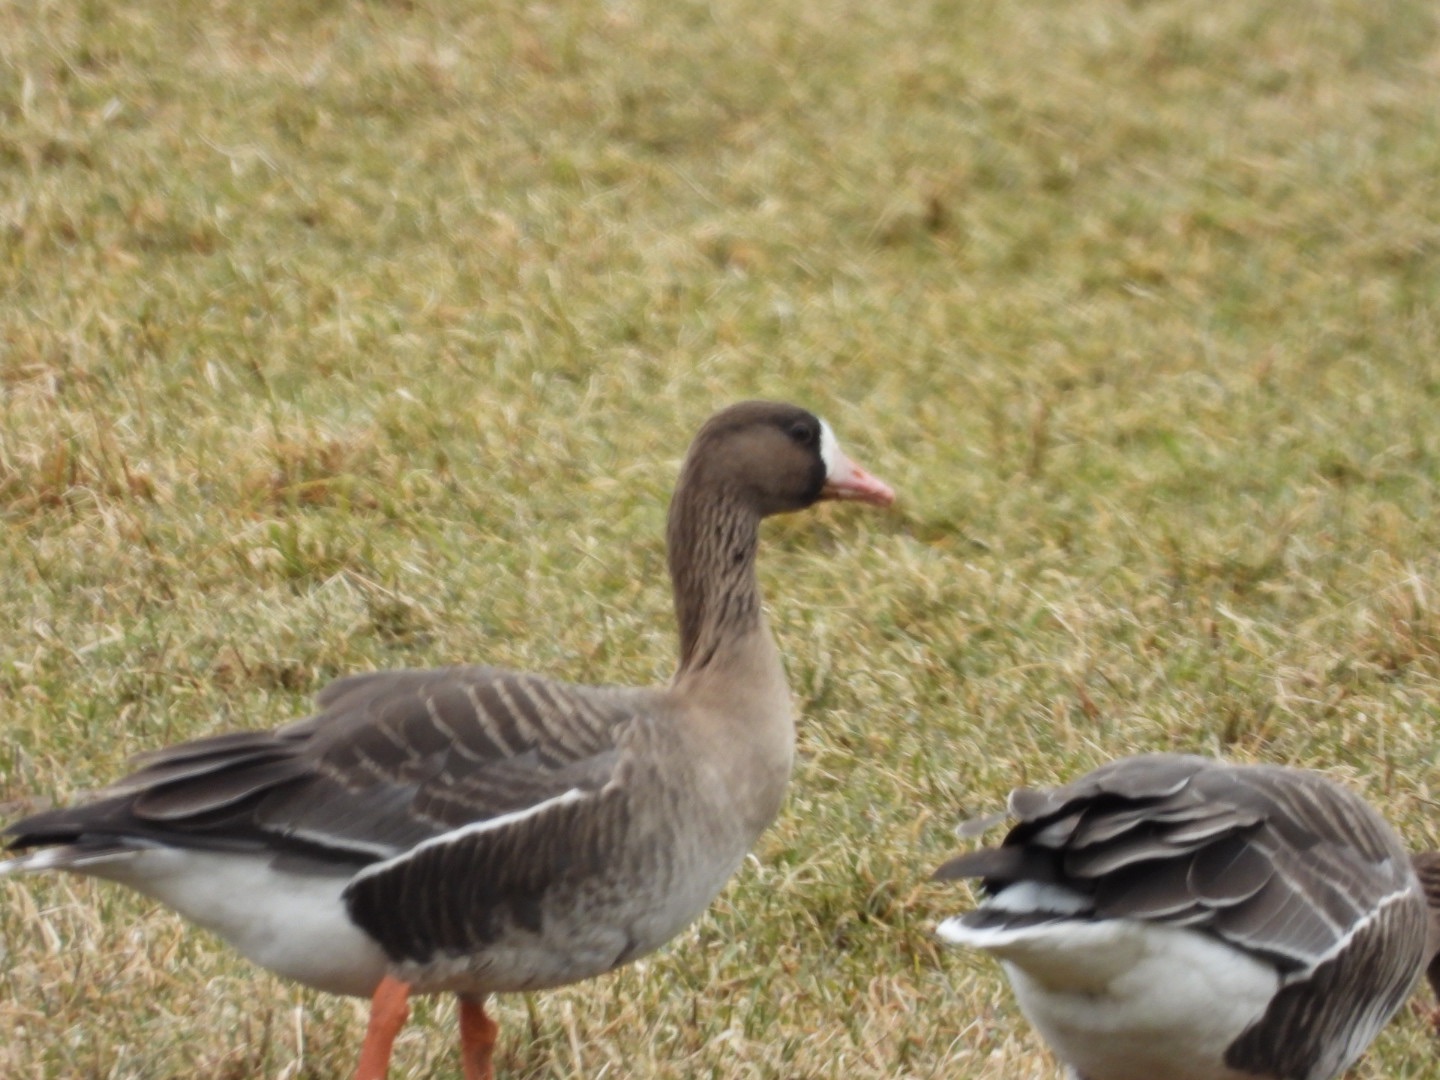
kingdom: Animalia
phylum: Chordata
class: Aves
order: Anseriformes
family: Anatidae
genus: Anser
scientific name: Anser albifrons
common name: Blisgås
